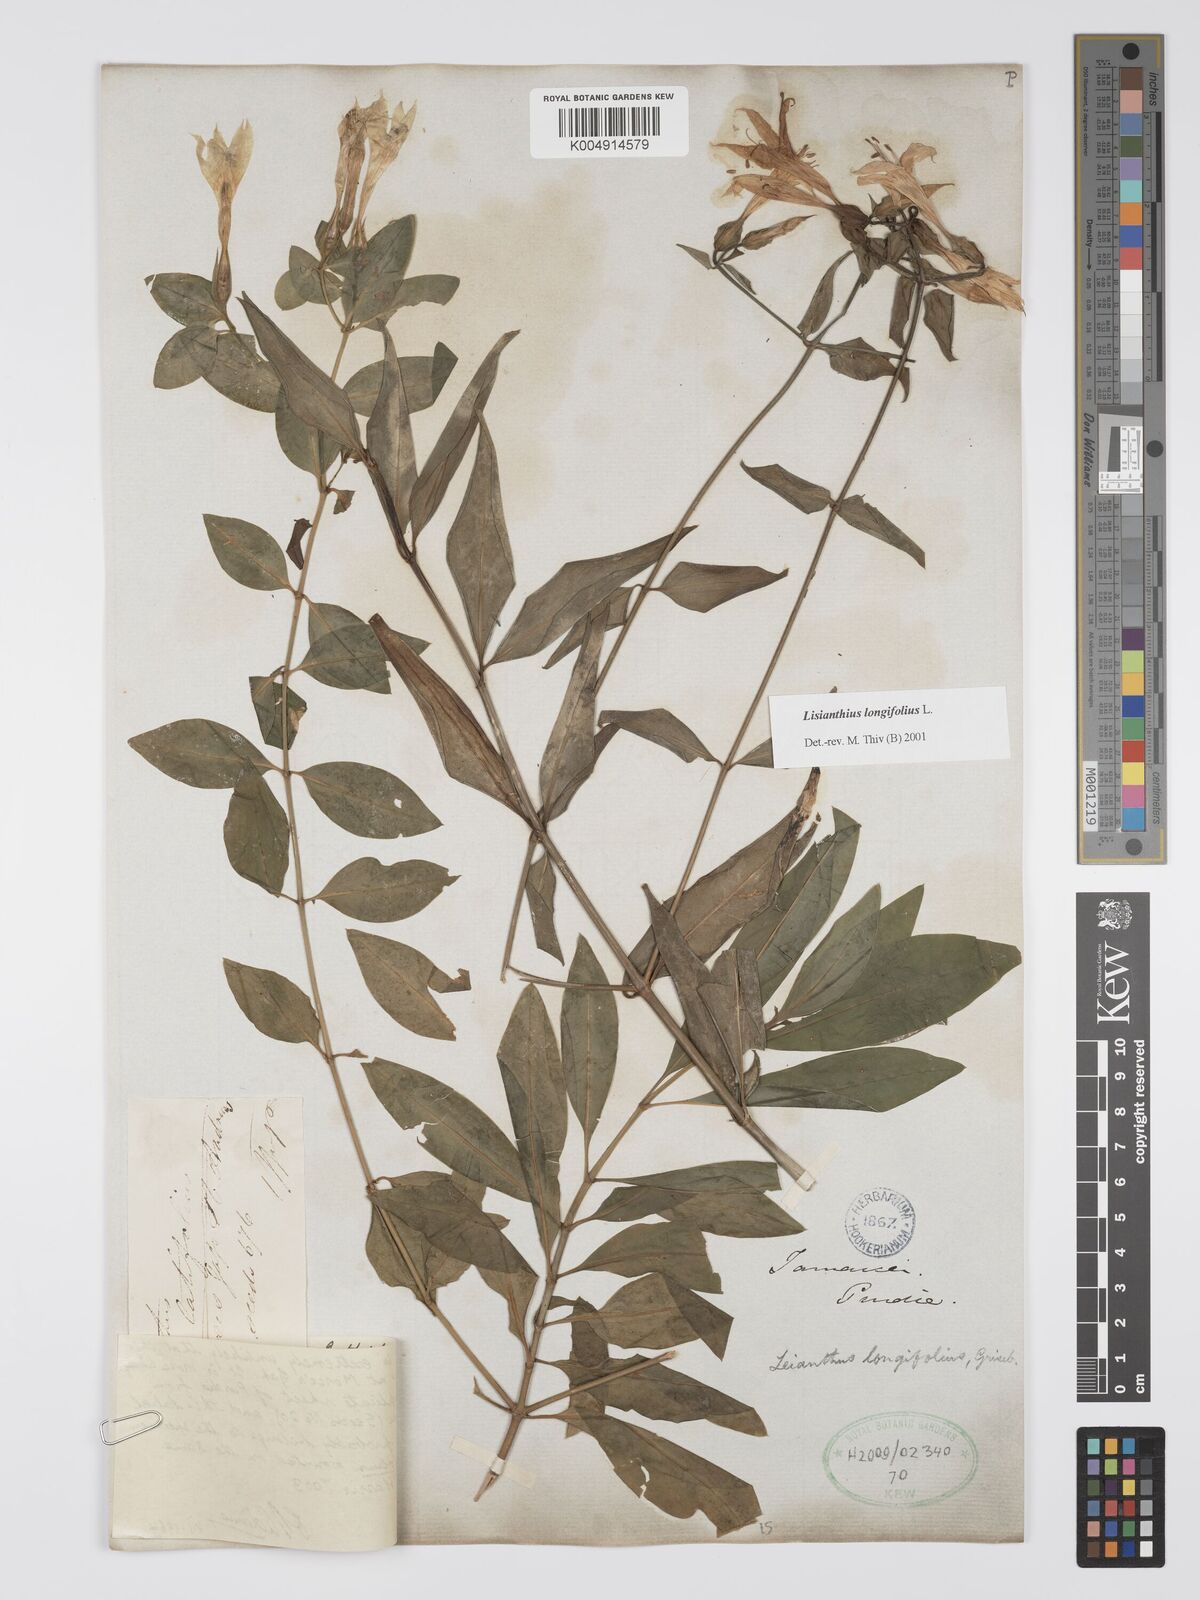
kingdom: Plantae
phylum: Tracheophyta
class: Magnoliopsida
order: Gentianales
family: Gentianaceae
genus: Lisianthus
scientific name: Lisianthus longifolius
